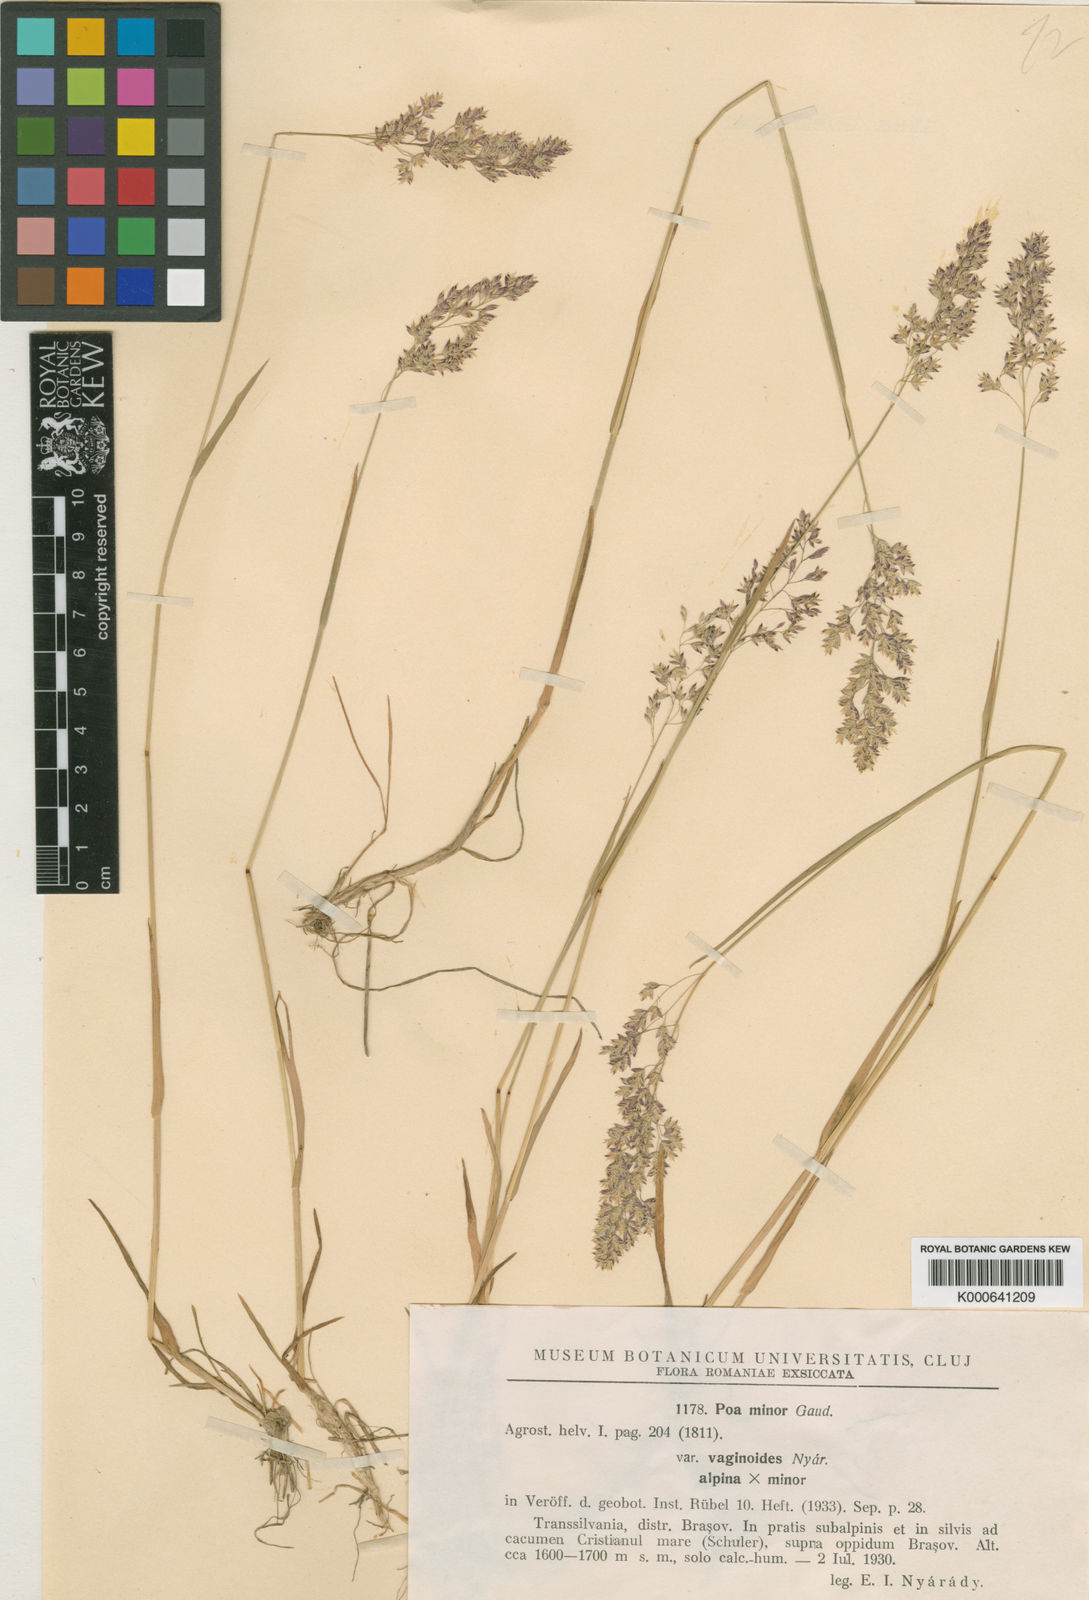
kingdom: Plantae
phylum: Tracheophyta
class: Liliopsida
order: Poales
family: Poaceae
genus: Poa
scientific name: Poa minor
